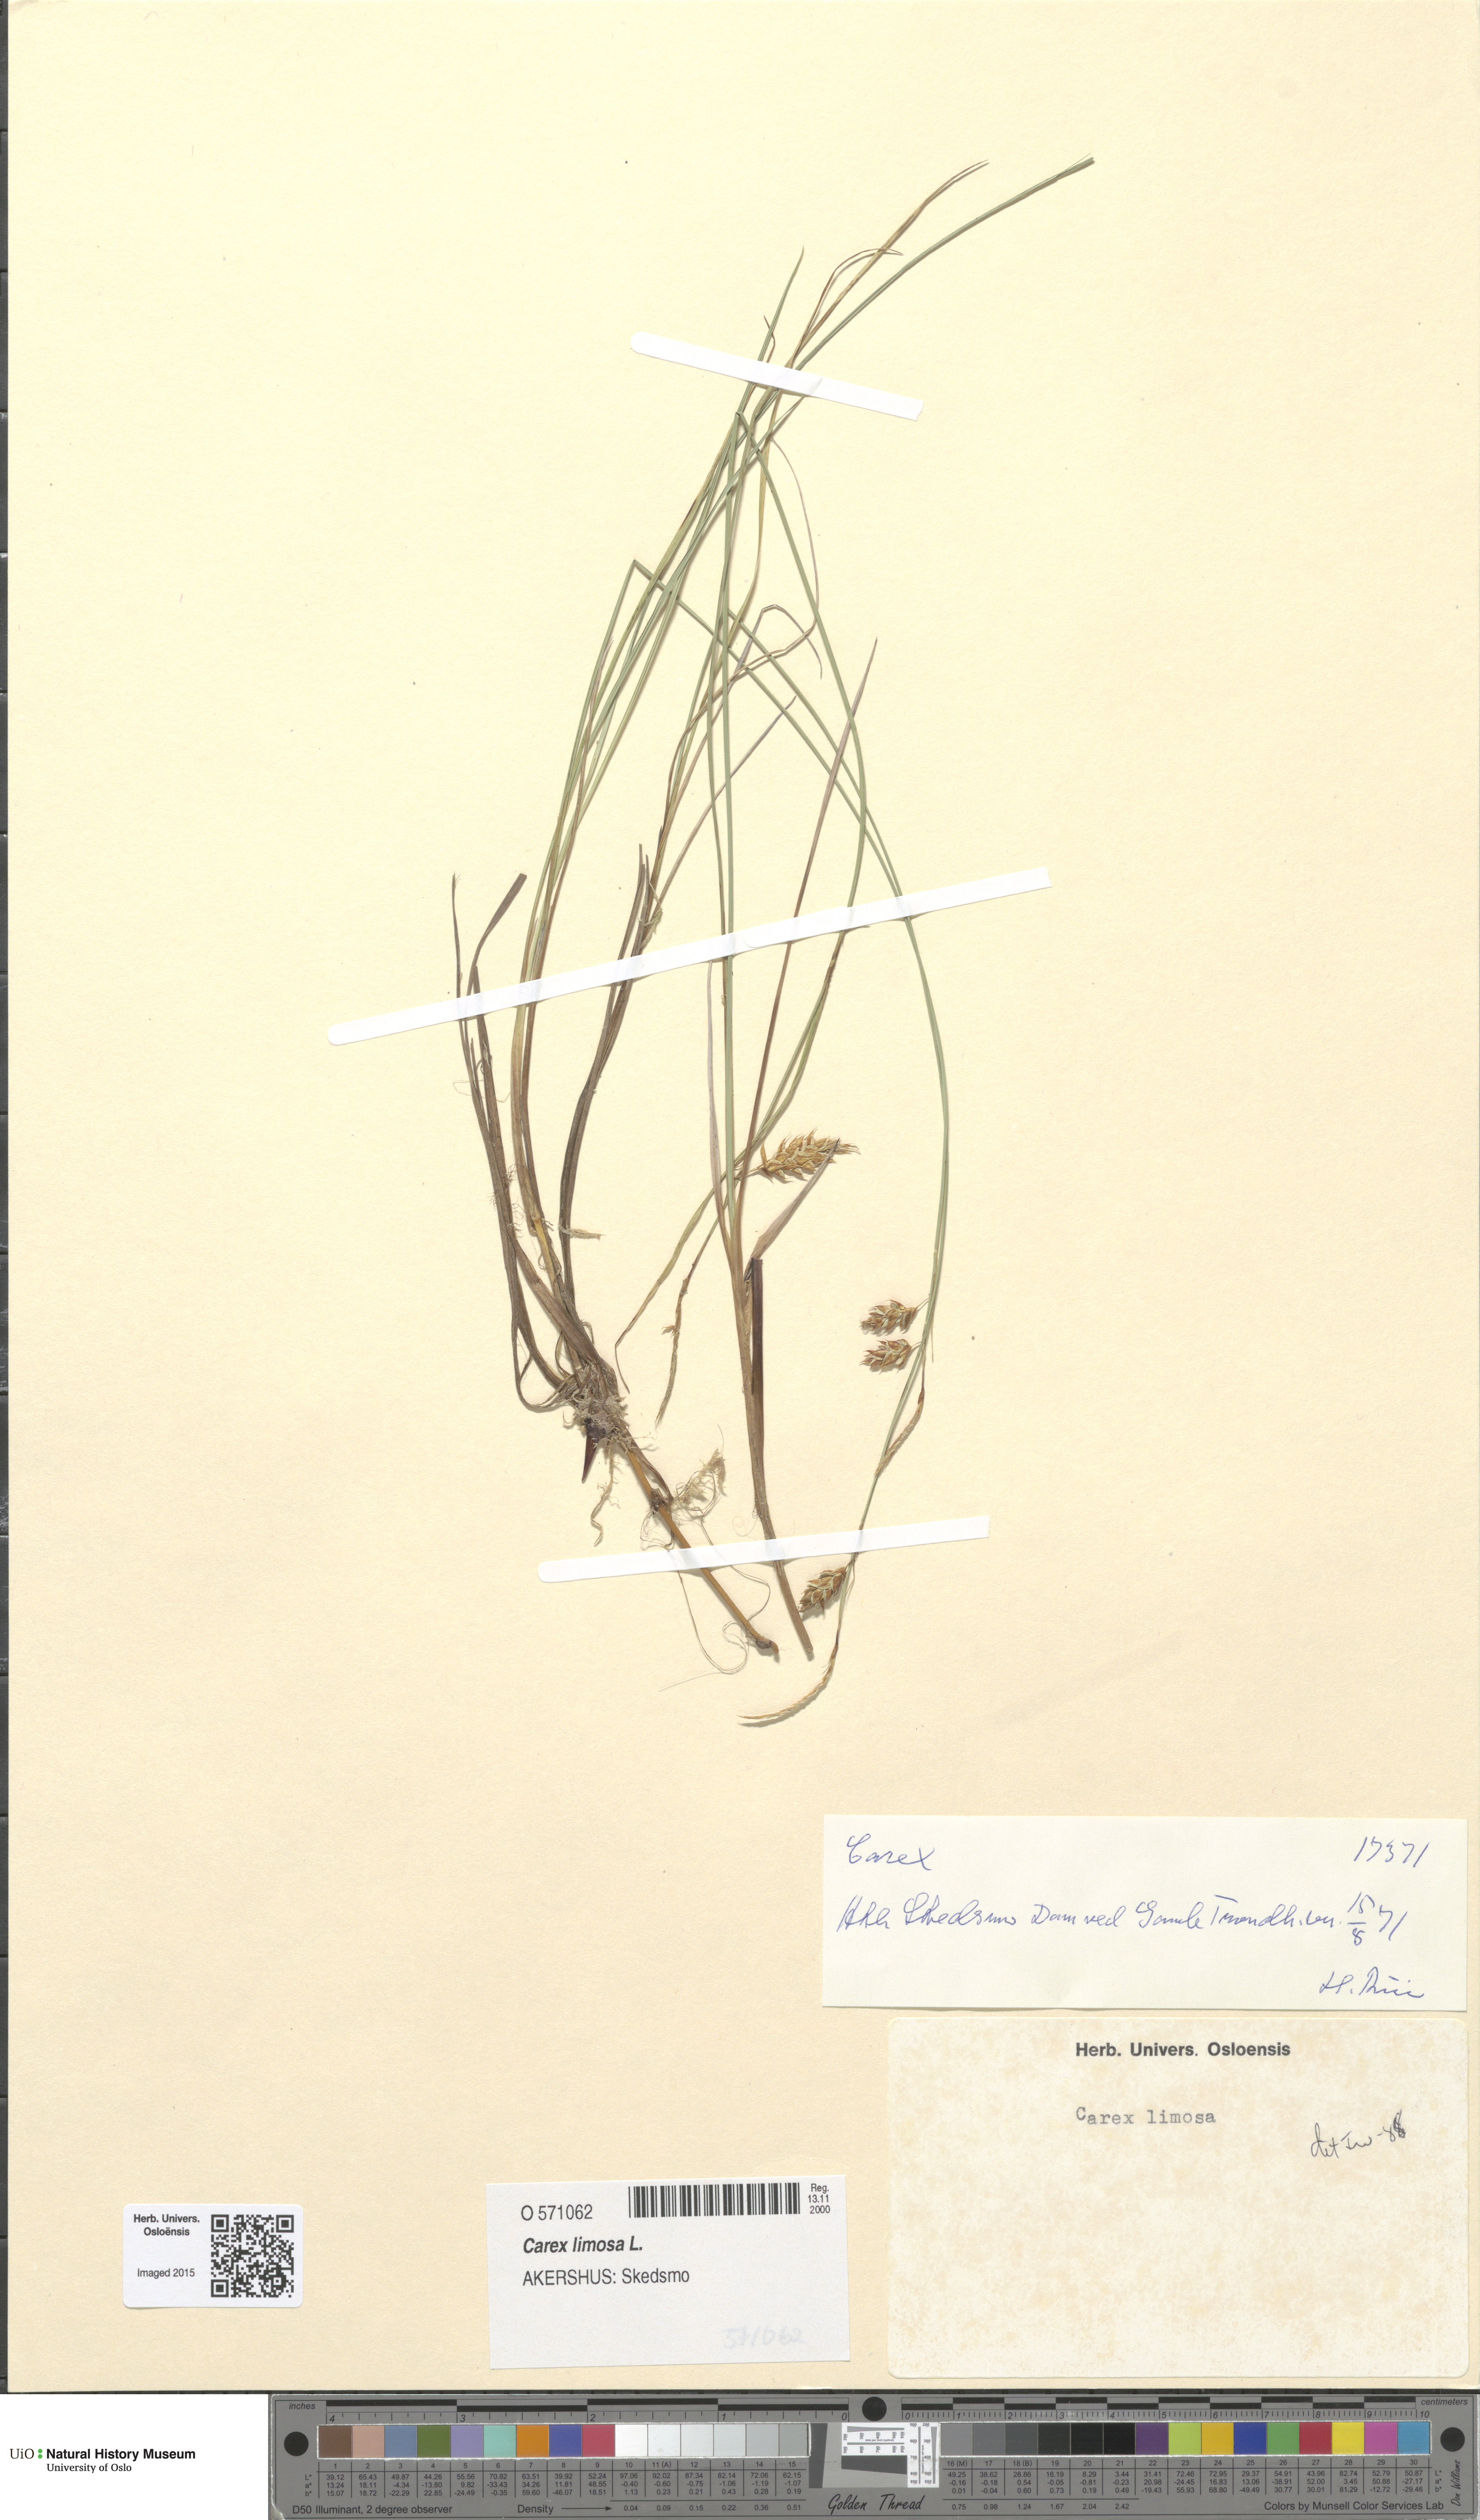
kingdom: Plantae
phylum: Tracheophyta
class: Liliopsida
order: Poales
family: Cyperaceae
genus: Carex
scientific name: Carex limosa
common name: Bog sedge
